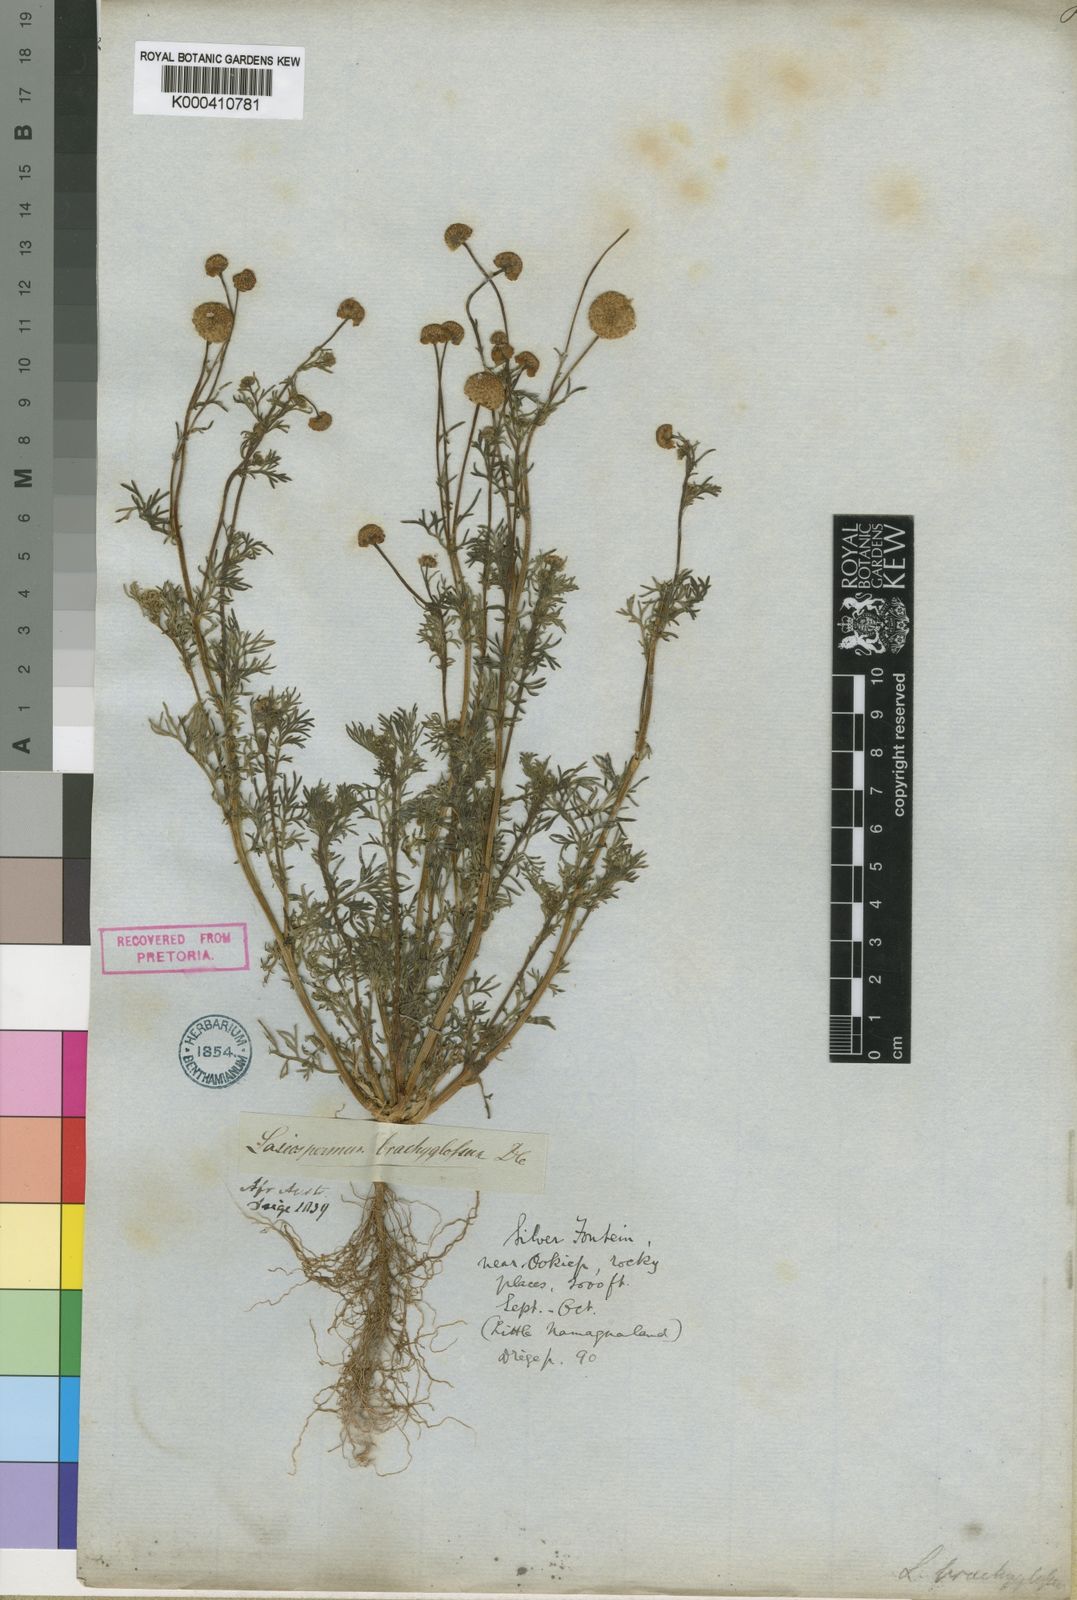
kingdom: Plantae
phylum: Tracheophyta
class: Magnoliopsida
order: Asterales
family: Asteraceae
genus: Lasiospermum
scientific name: Lasiospermum brachyglossum
